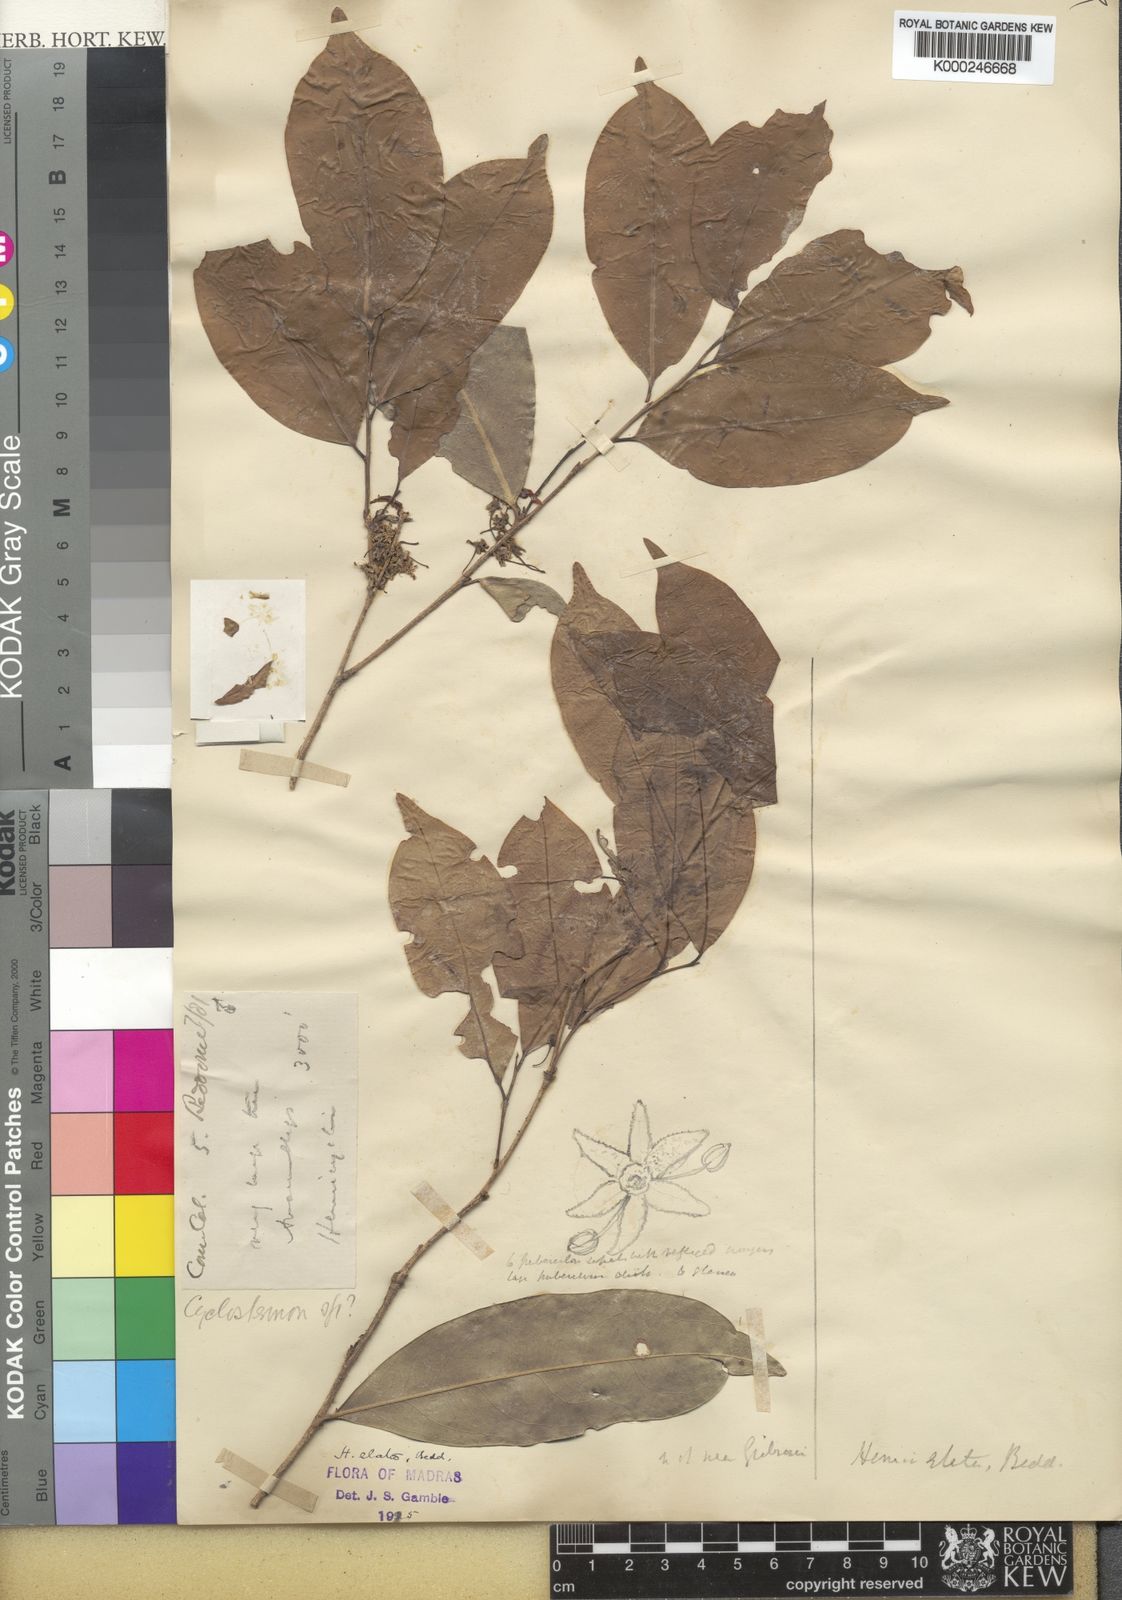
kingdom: Plantae
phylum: Tracheophyta
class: Magnoliopsida
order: Malpighiales
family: Putranjivaceae
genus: Drypetes
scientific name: Drypetes venusta
